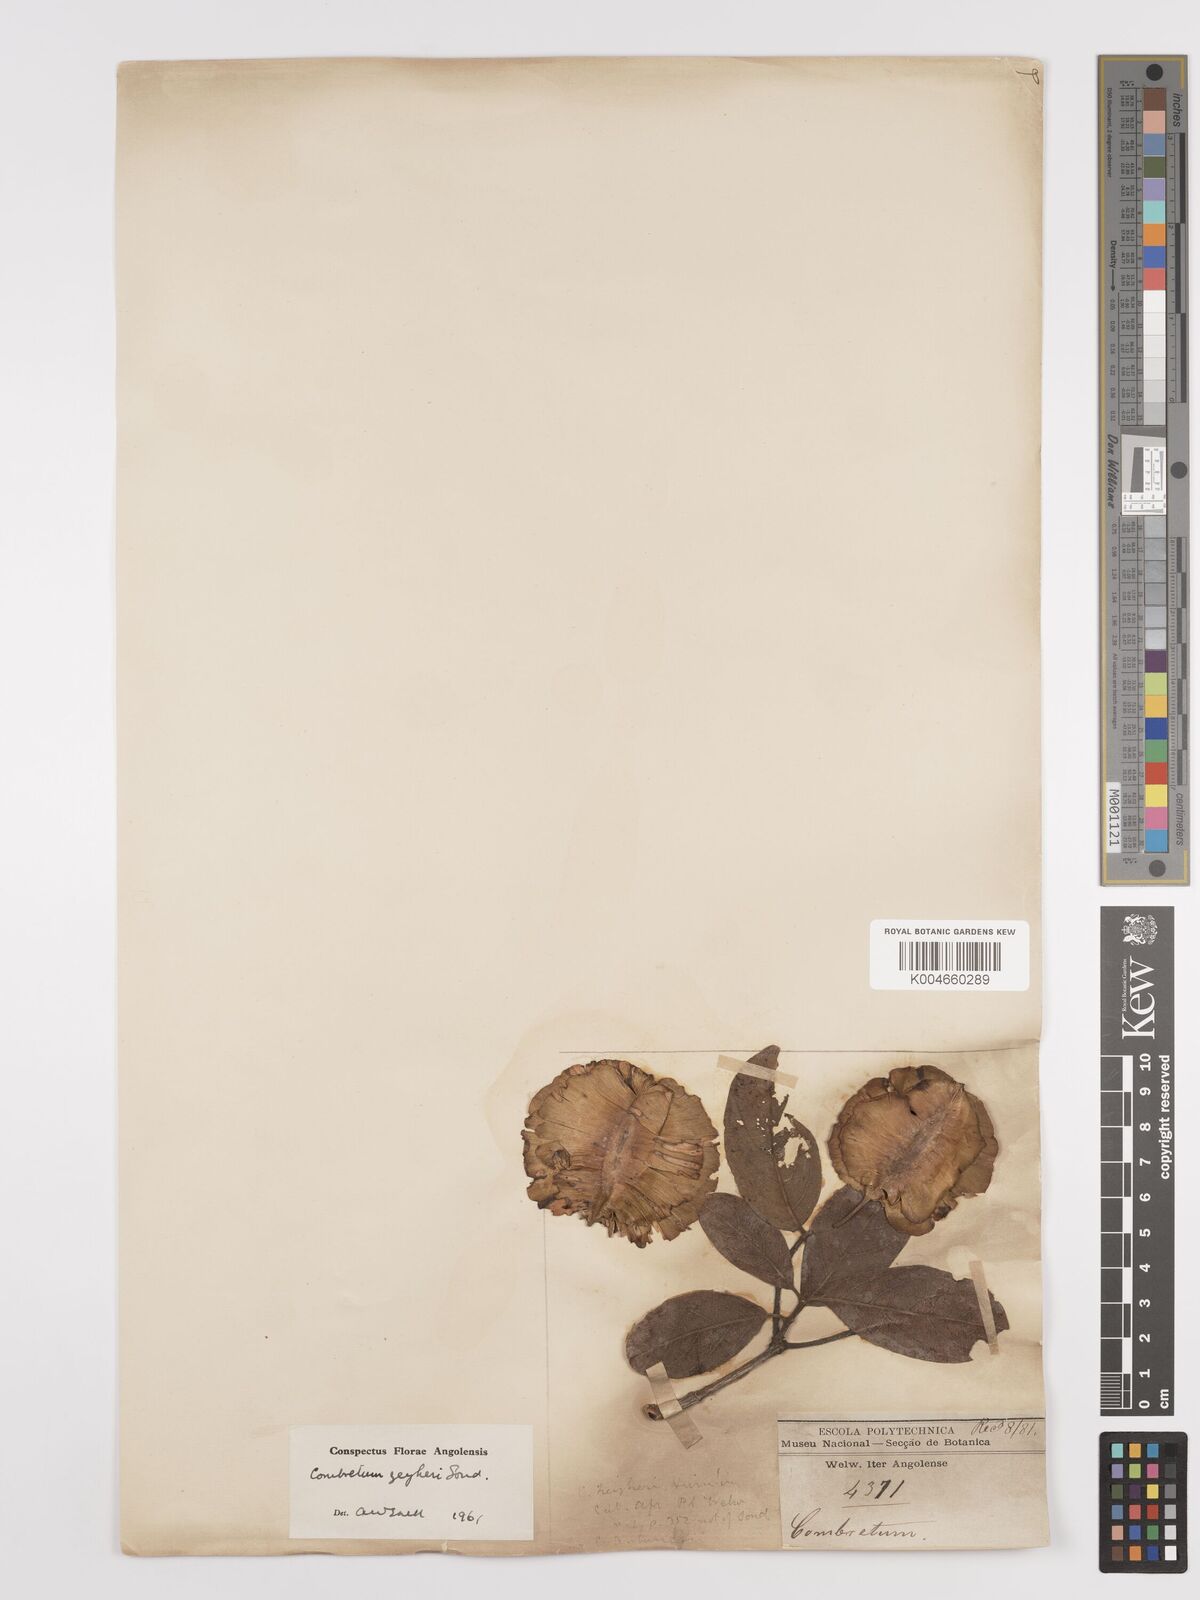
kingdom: Plantae
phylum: Tracheophyta
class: Magnoliopsida
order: Myrtales
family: Combretaceae
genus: Combretum
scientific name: Combretum zeyheri
